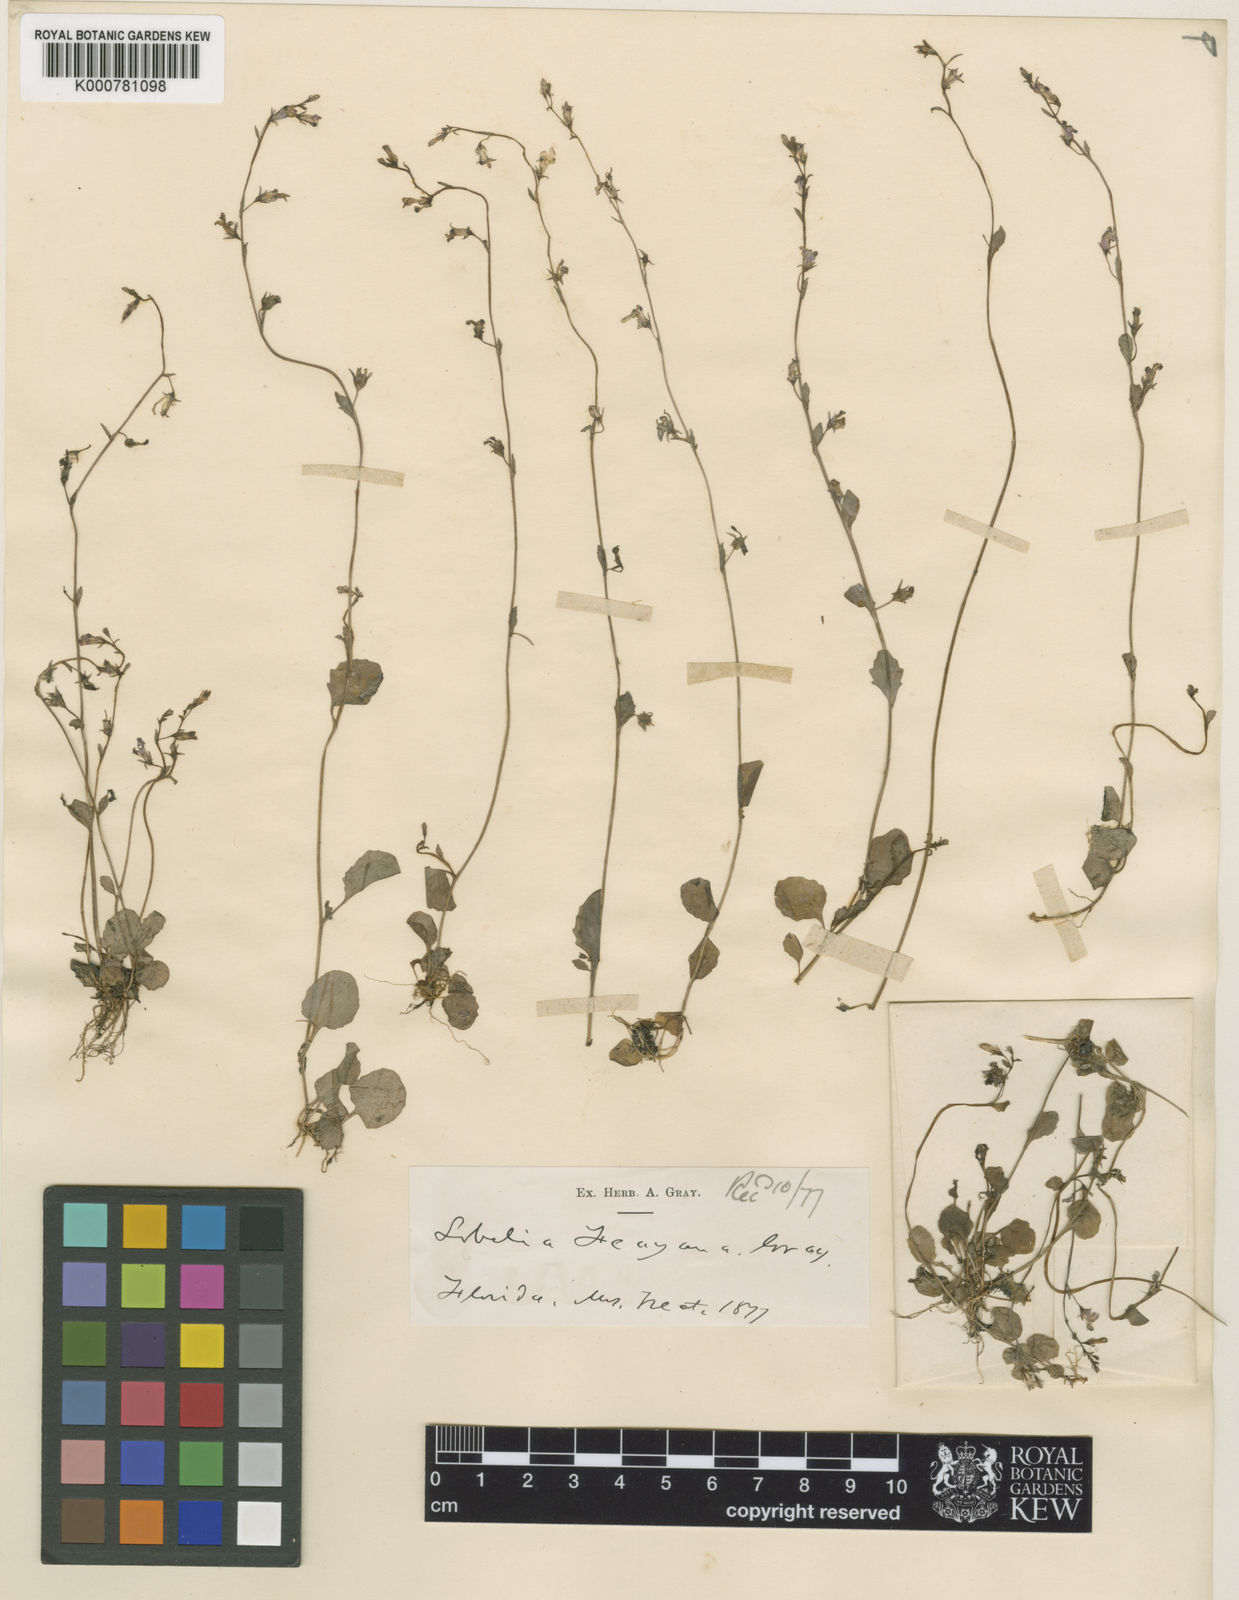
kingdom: Plantae
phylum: Tracheophyta
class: Magnoliopsida
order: Asterales
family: Campanulaceae
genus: Lobelia
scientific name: Lobelia feayana
